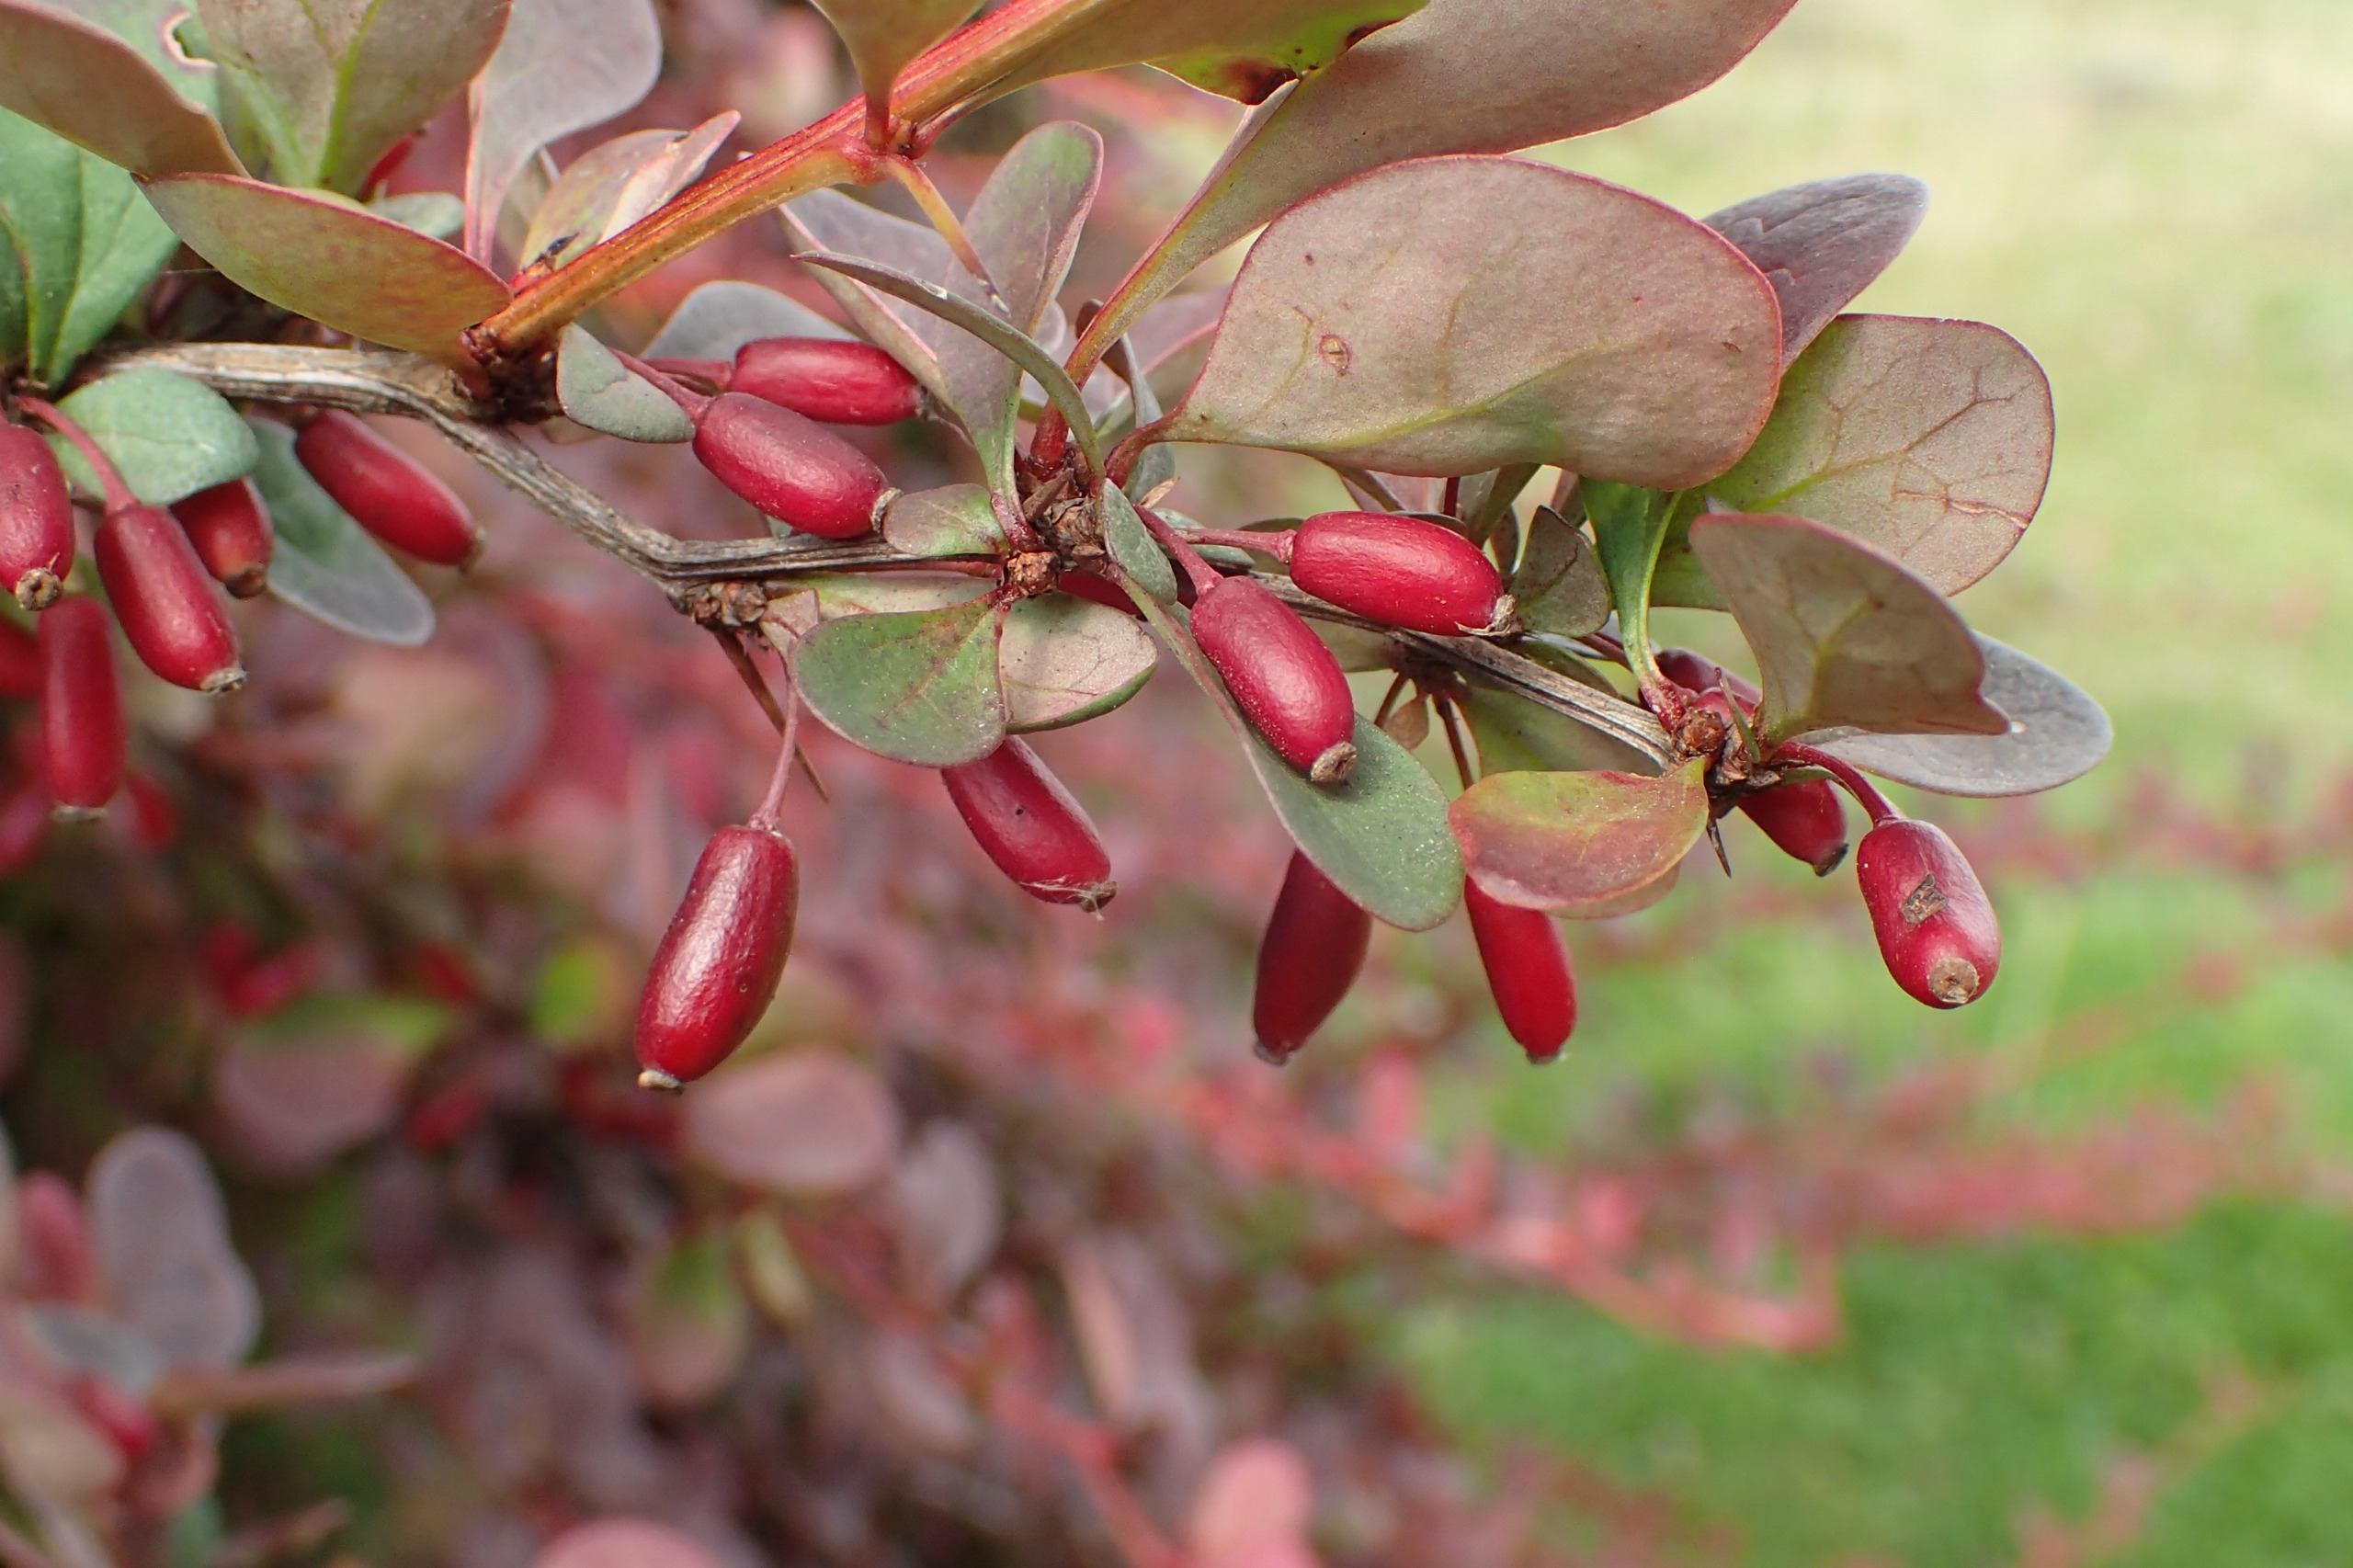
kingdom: Plantae
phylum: Tracheophyta
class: Magnoliopsida
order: Ranunculales
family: Berberidaceae
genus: Berberis
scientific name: Berberis thunbergii
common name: Hæk-berberis
